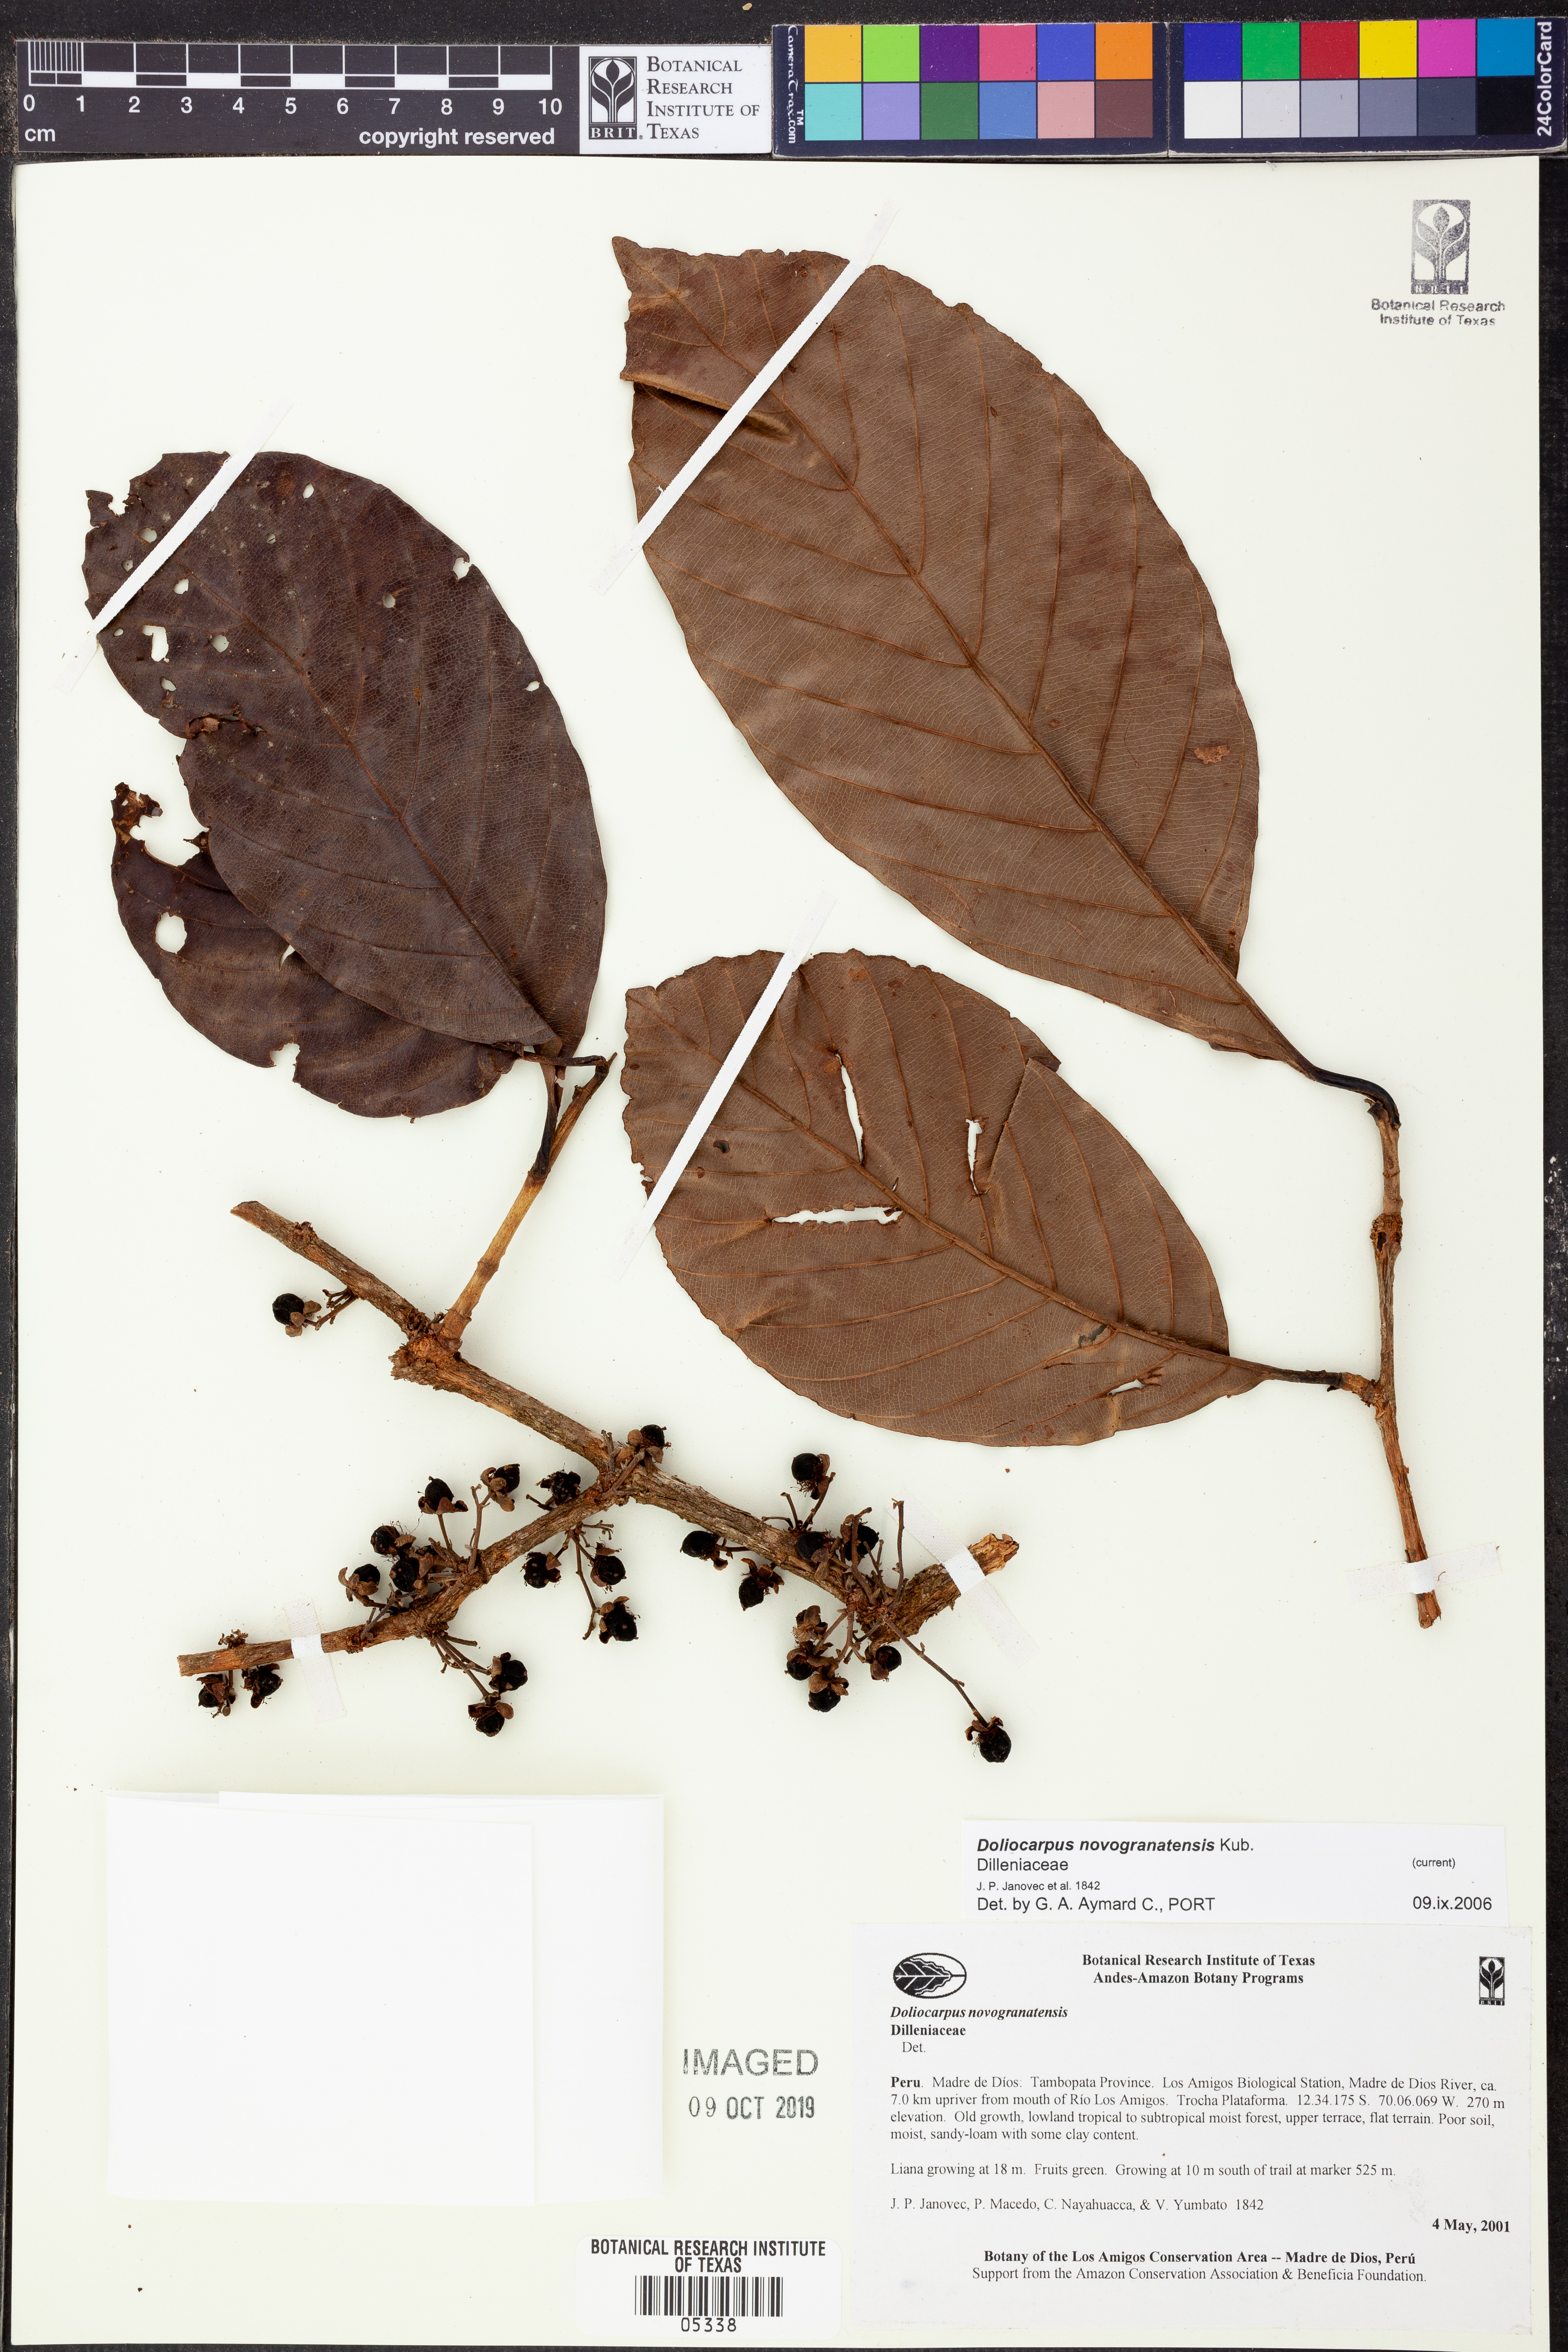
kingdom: Plantae
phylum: Tracheophyta
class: Magnoliopsida
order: Dilleniales
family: Dilleniaceae
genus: Doliocarpus
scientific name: Doliocarpus
